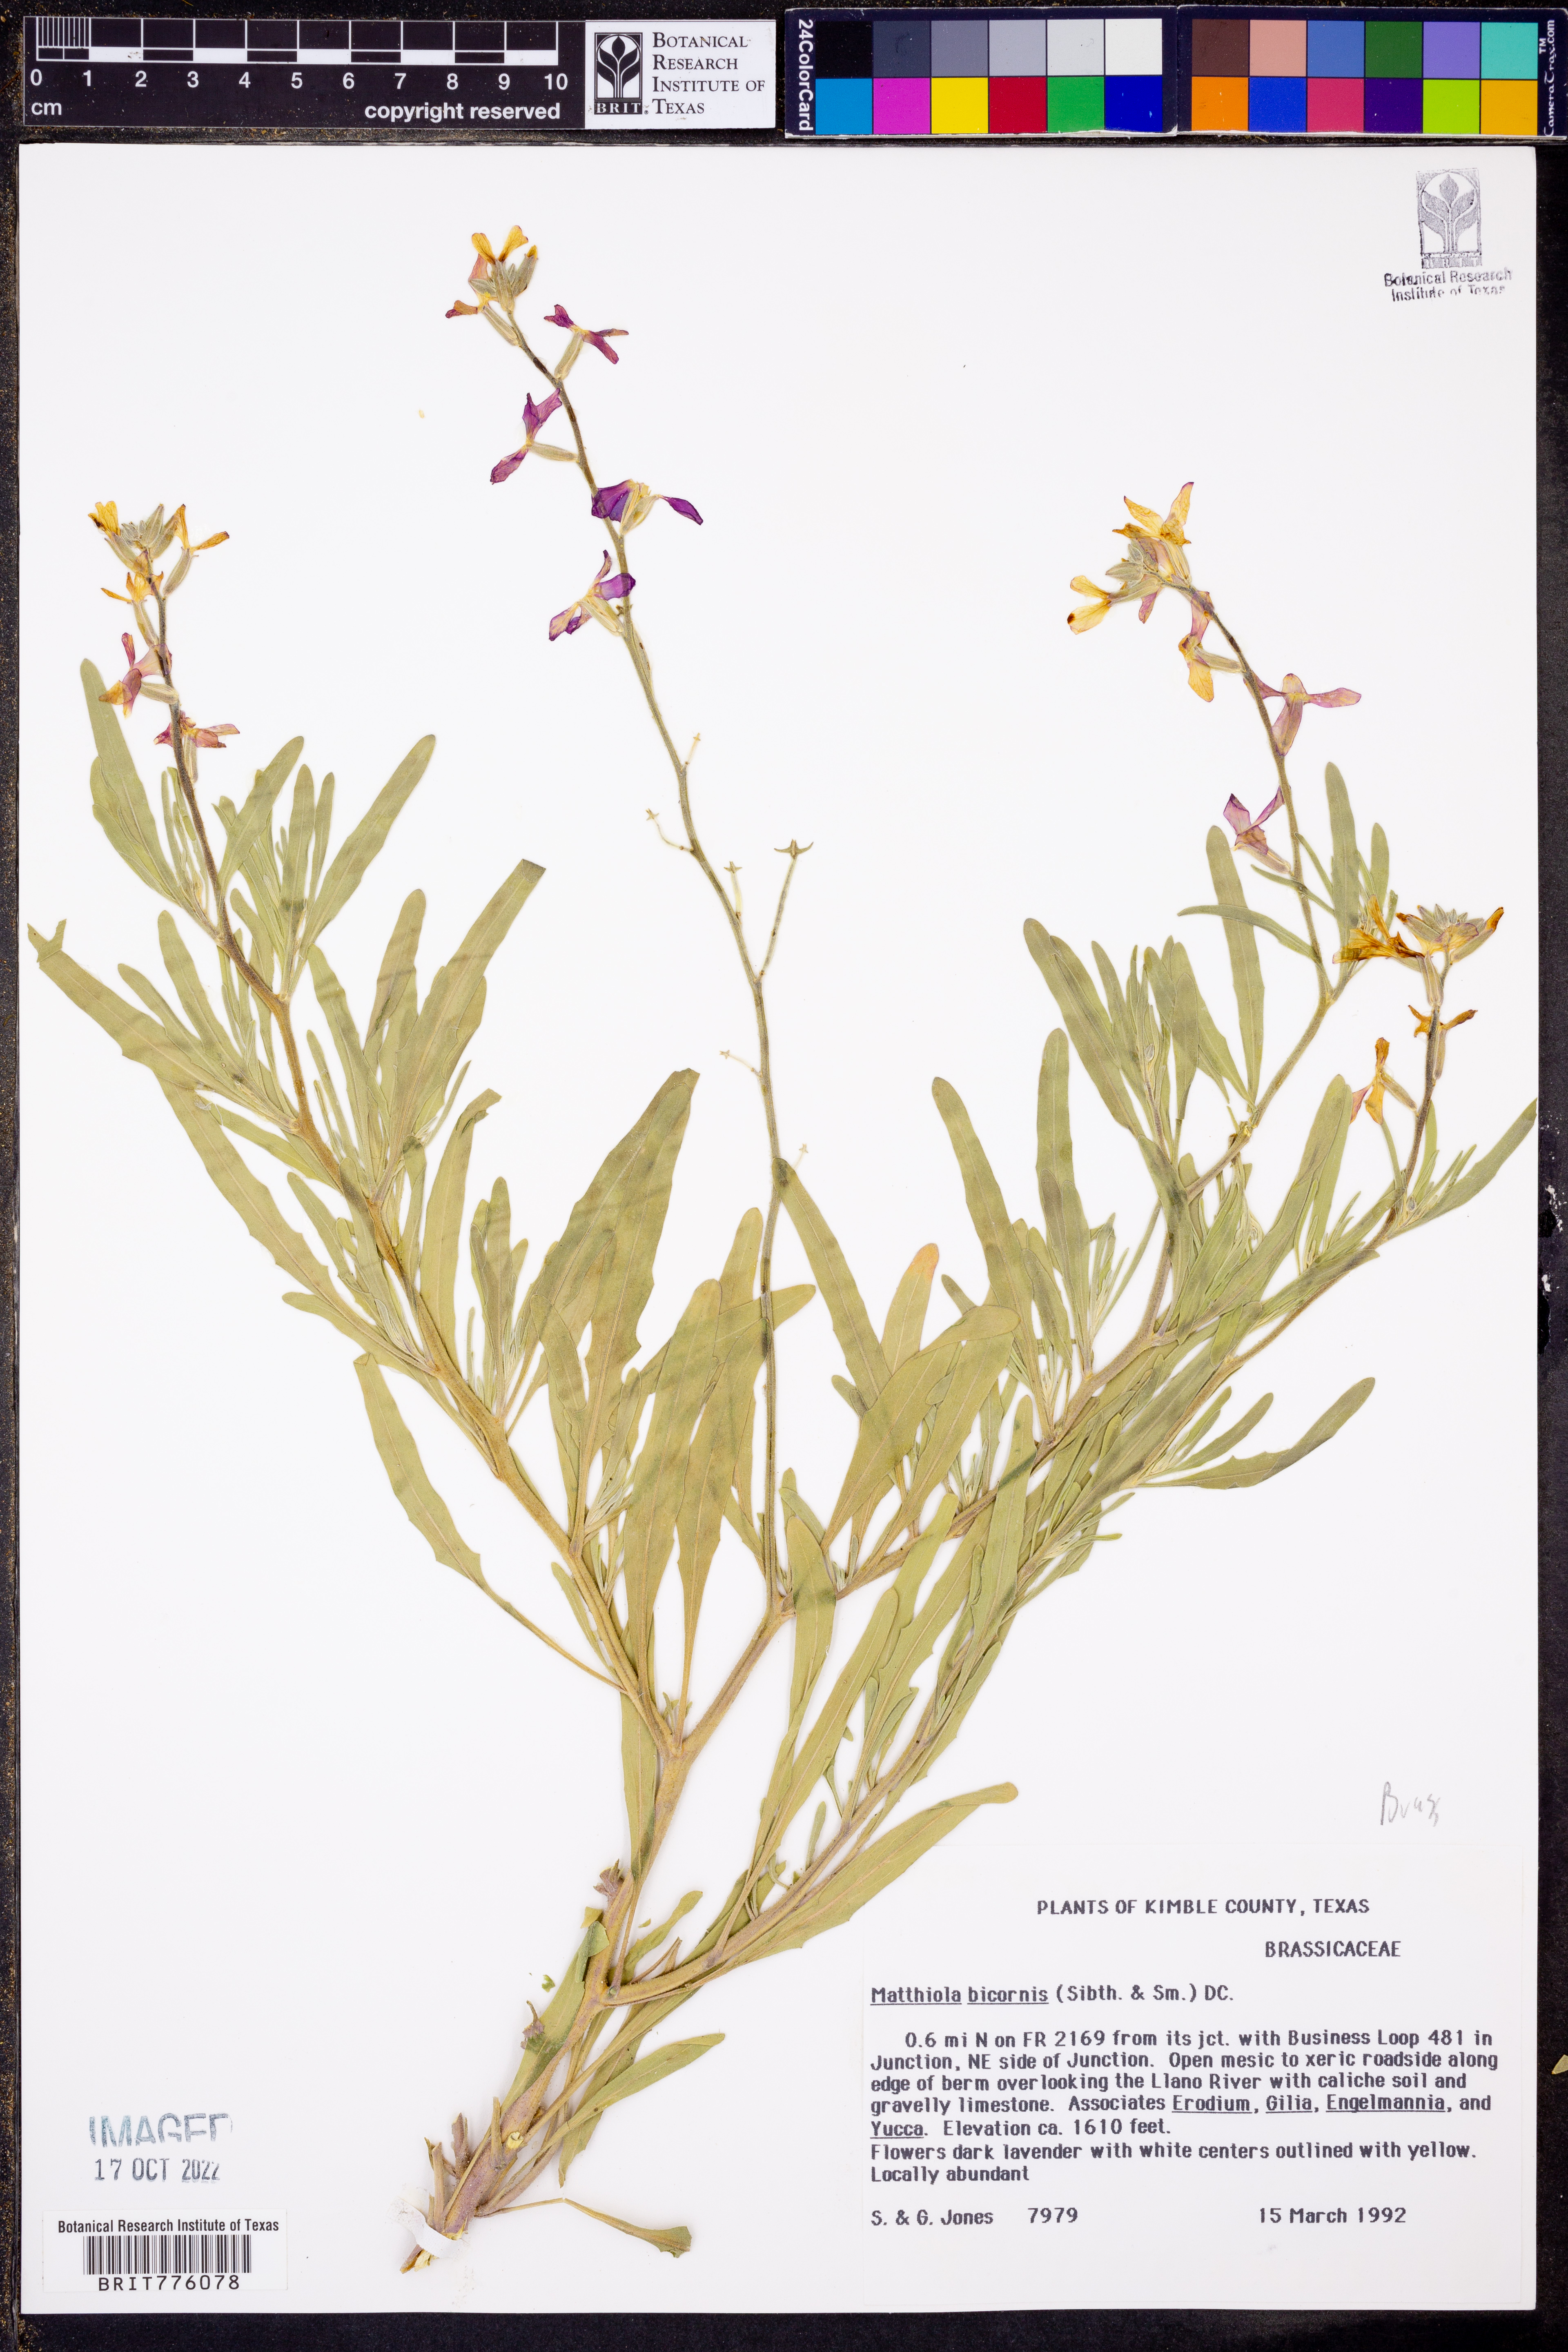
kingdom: Plantae
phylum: Tracheophyta
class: Magnoliopsida
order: Brassicales
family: Brassicaceae
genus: Matthiola
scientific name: Matthiola longipetala
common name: Night-scented stock
